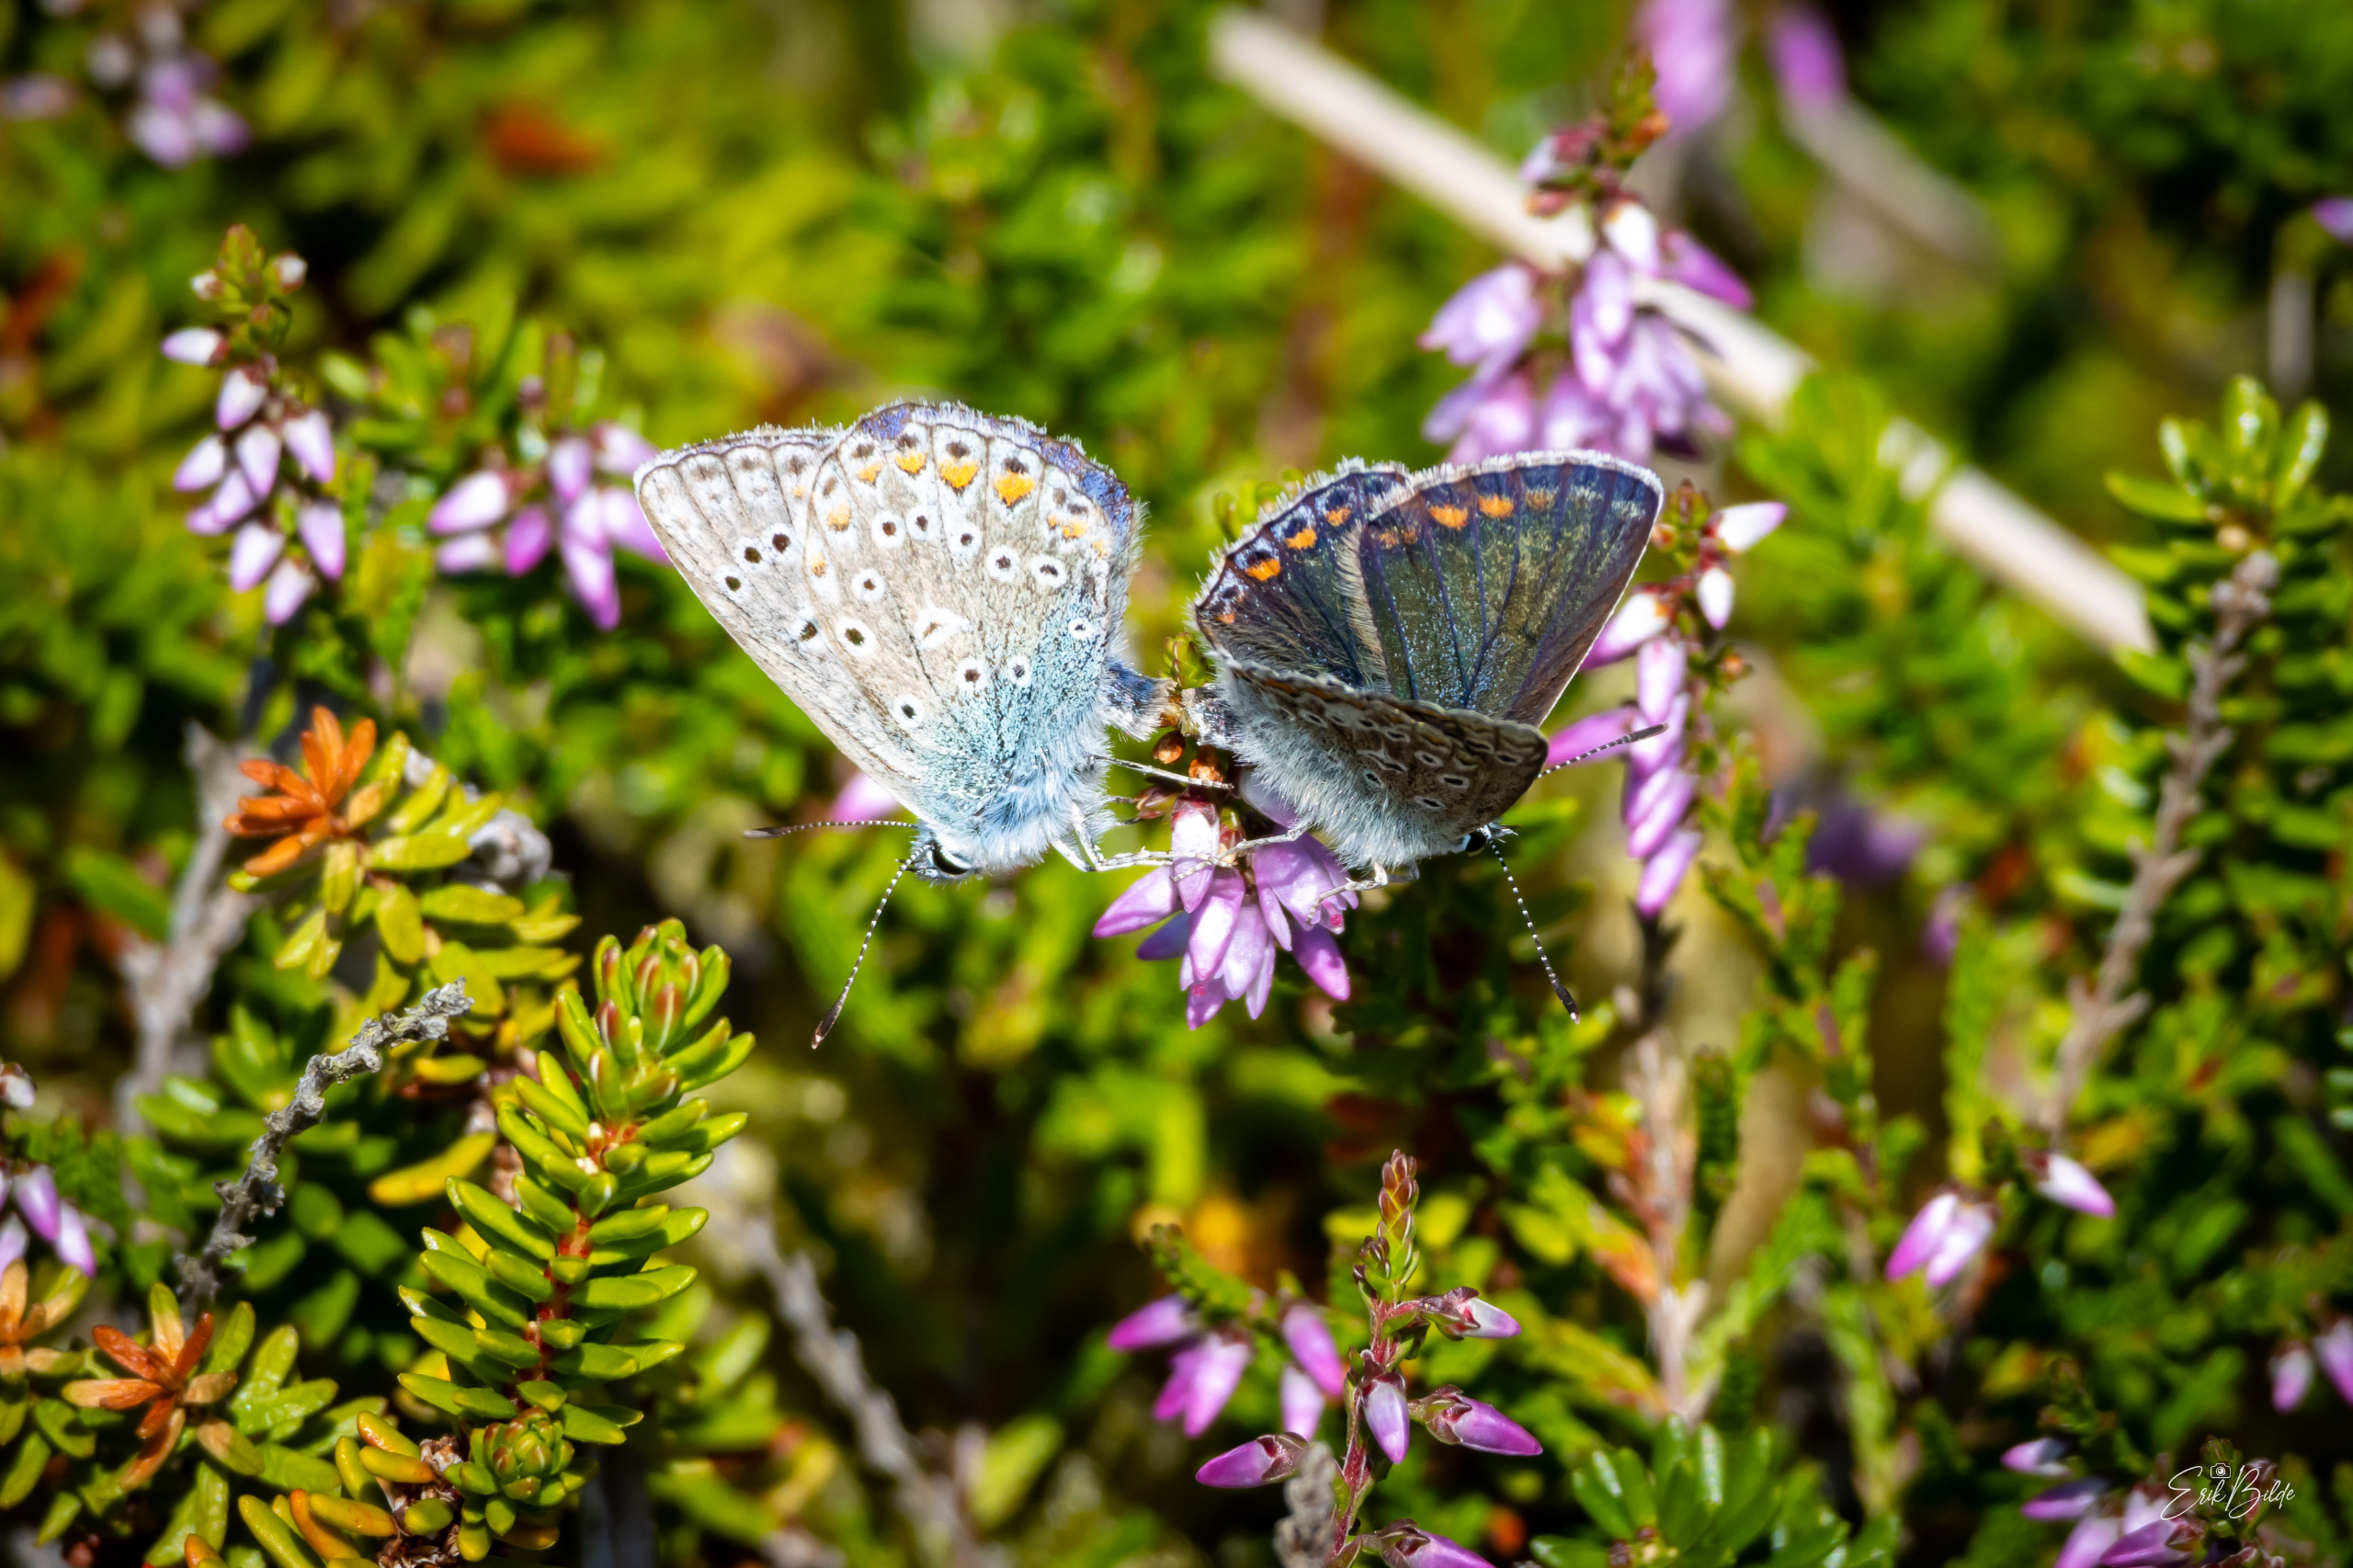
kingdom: Animalia
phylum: Arthropoda
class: Insecta
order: Lepidoptera
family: Lycaenidae
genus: Polyommatus
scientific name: Polyommatus icarus
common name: Almindelig blåfugl
